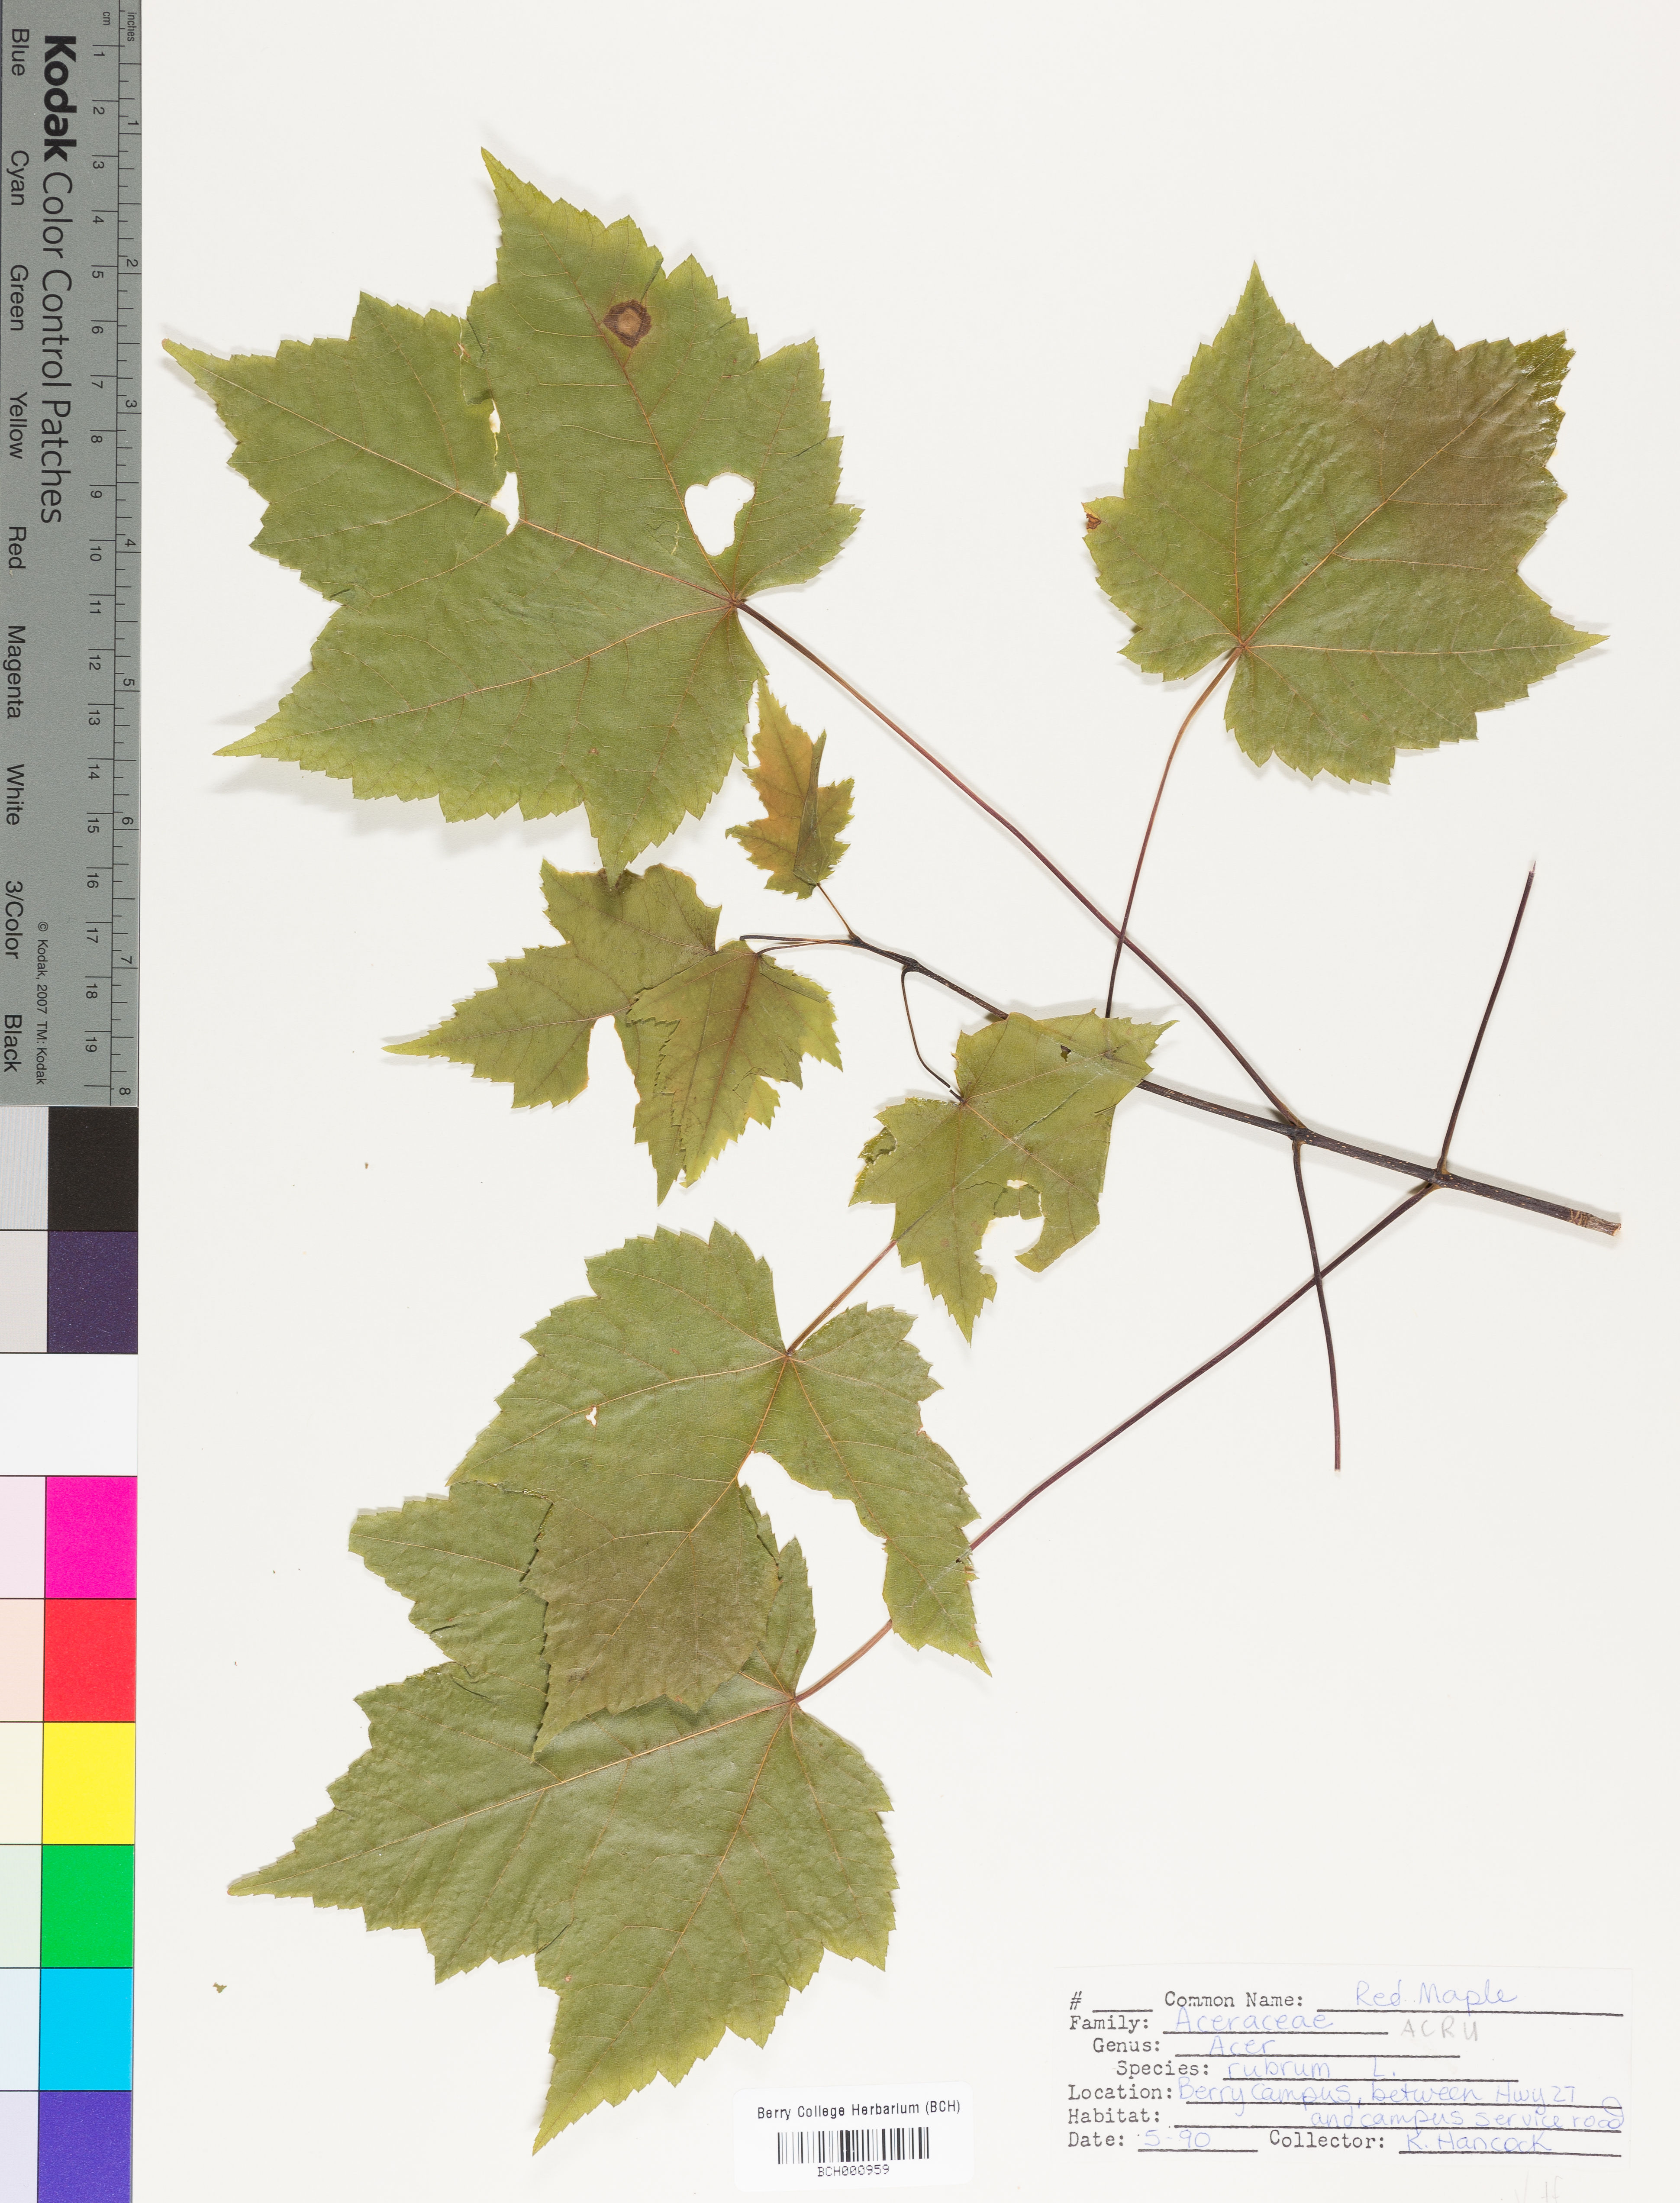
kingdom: Plantae
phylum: Tracheophyta
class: Magnoliopsida
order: Sapindales
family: Sapindaceae
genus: Acer
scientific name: Acer rubrum
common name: Red maple
